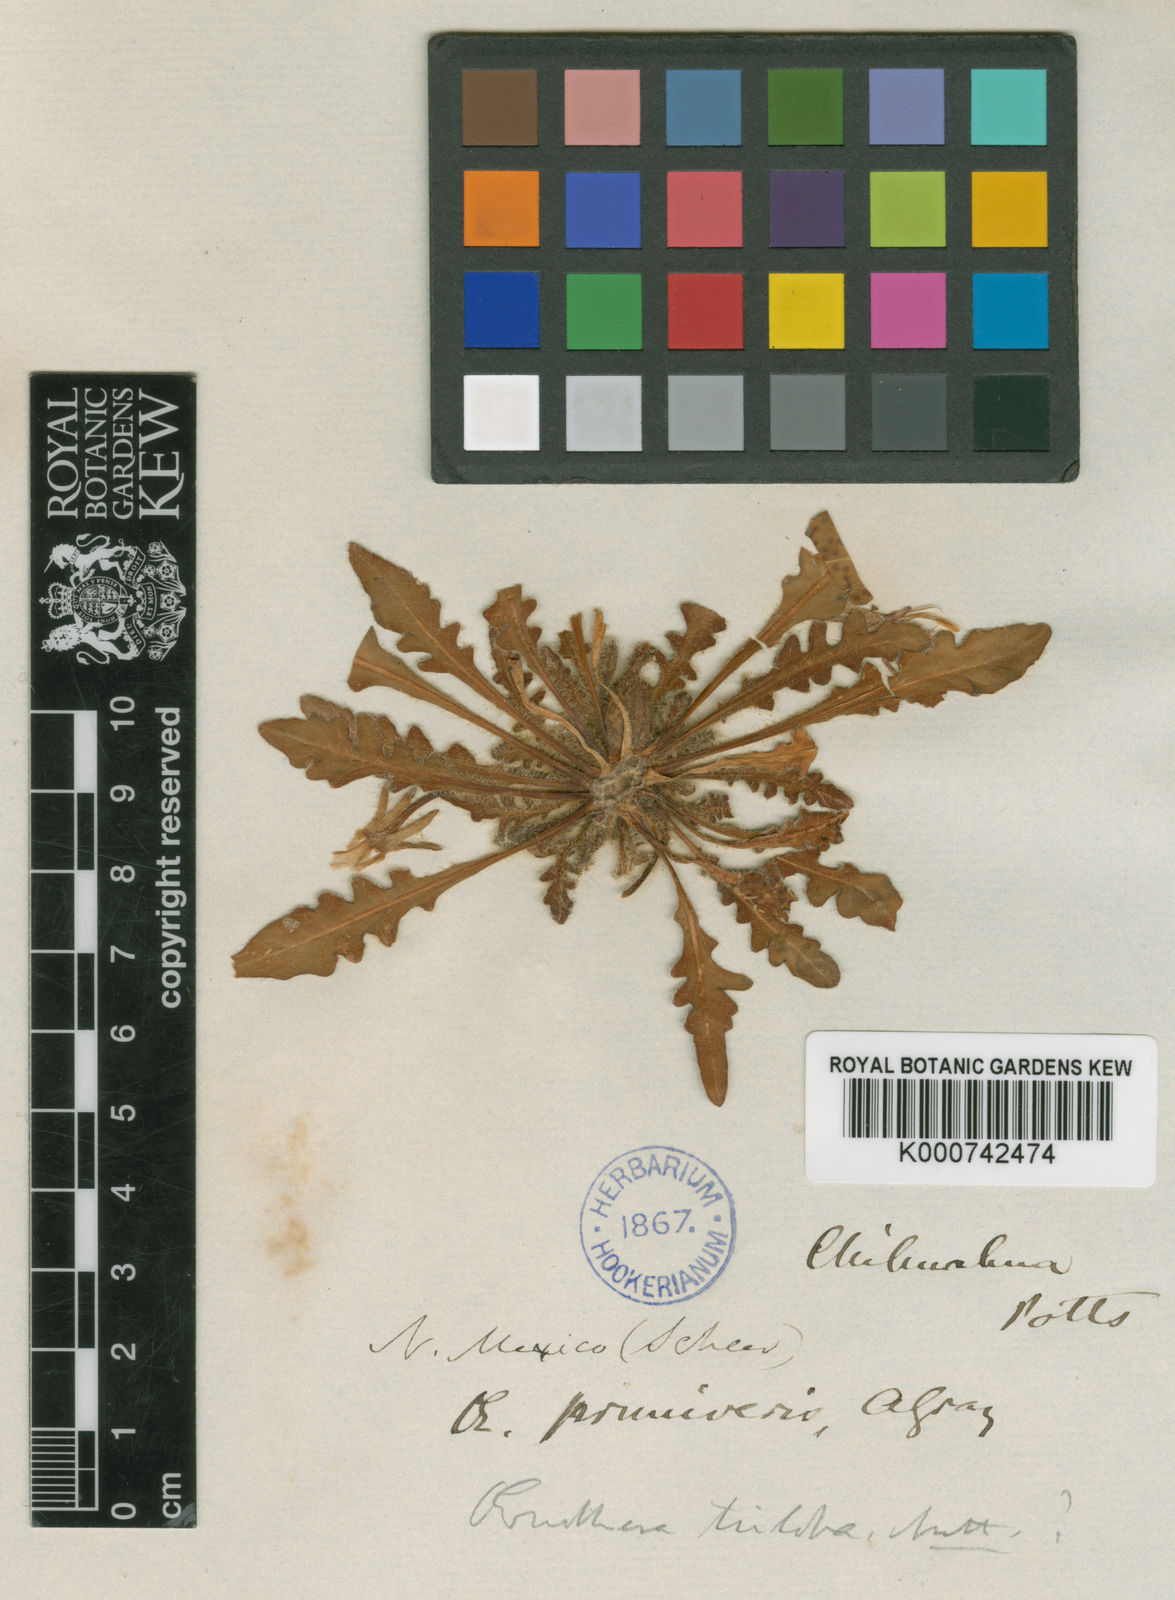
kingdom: Plantae
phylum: Tracheophyta
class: Magnoliopsida
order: Myrtales
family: Onagraceae
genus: Oenothera
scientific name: Oenothera primiveris
